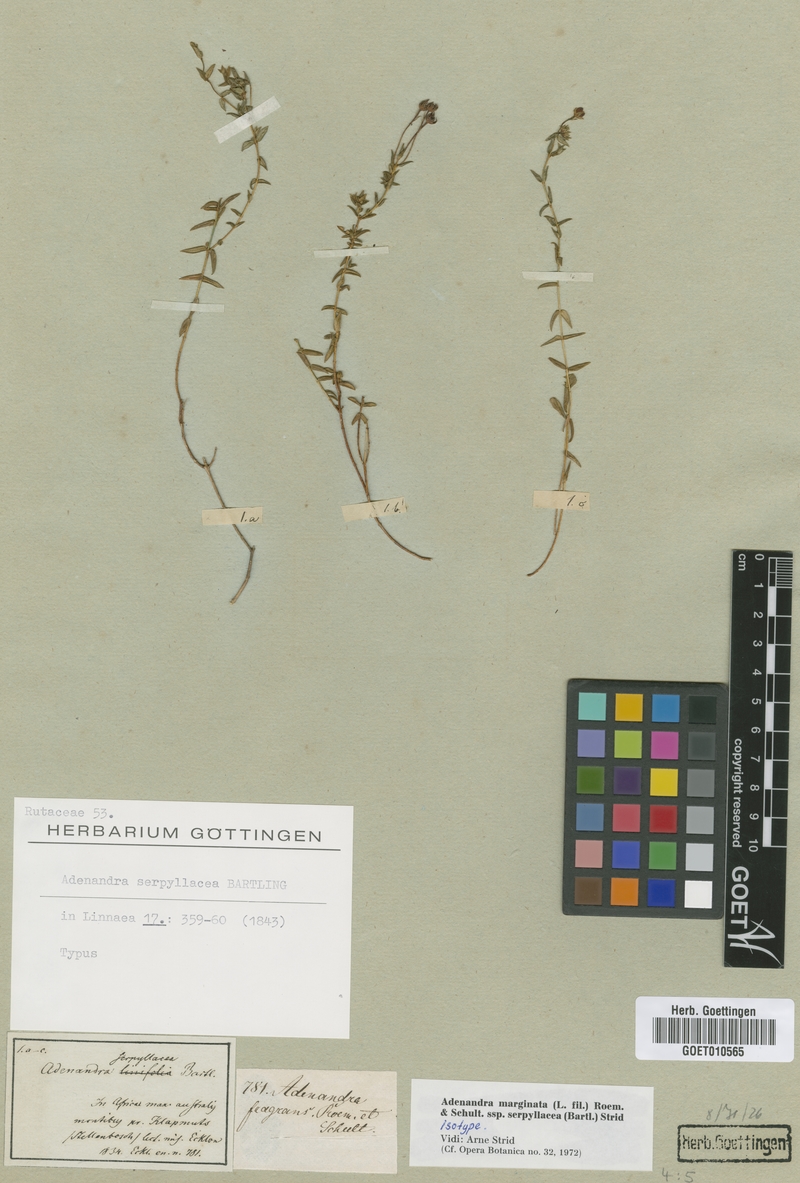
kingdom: Plantae
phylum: Tracheophyta
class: Magnoliopsida
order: Sapindales
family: Rutaceae
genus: Adenandra
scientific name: Adenandra marginata
